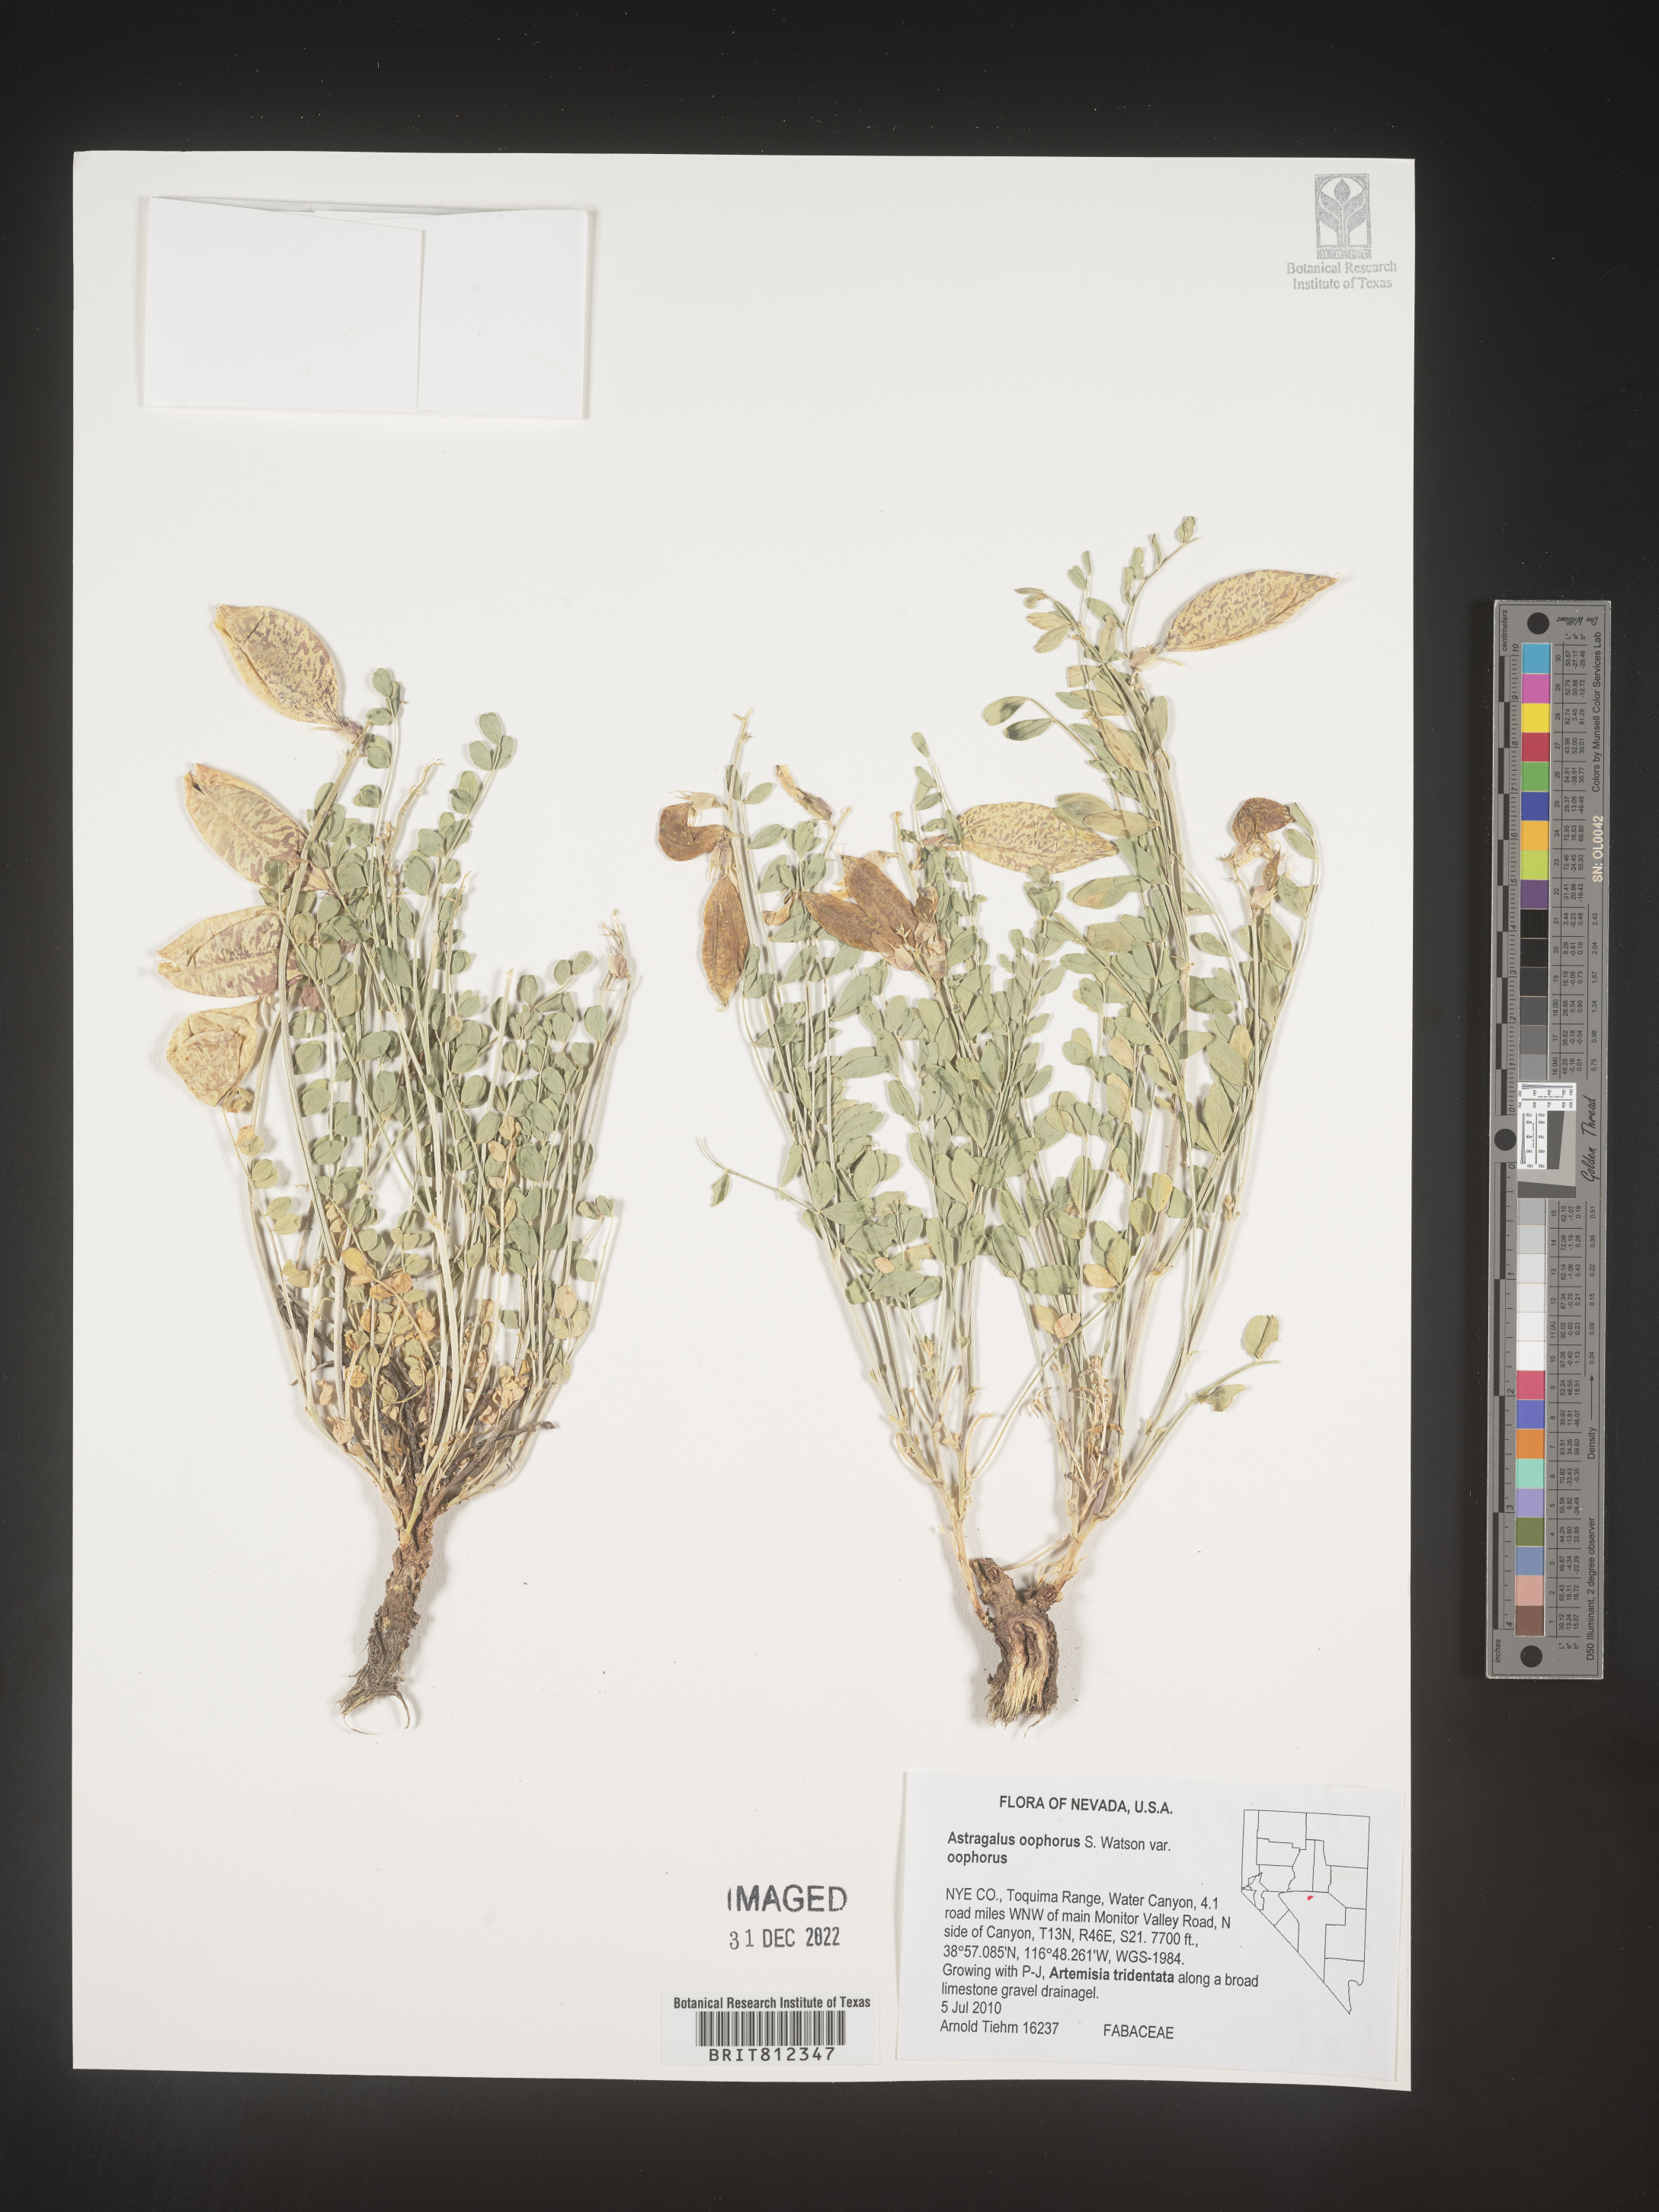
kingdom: Plantae
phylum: Tracheophyta
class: Magnoliopsida
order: Fabales
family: Fabaceae
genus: Astragalus
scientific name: Astragalus
